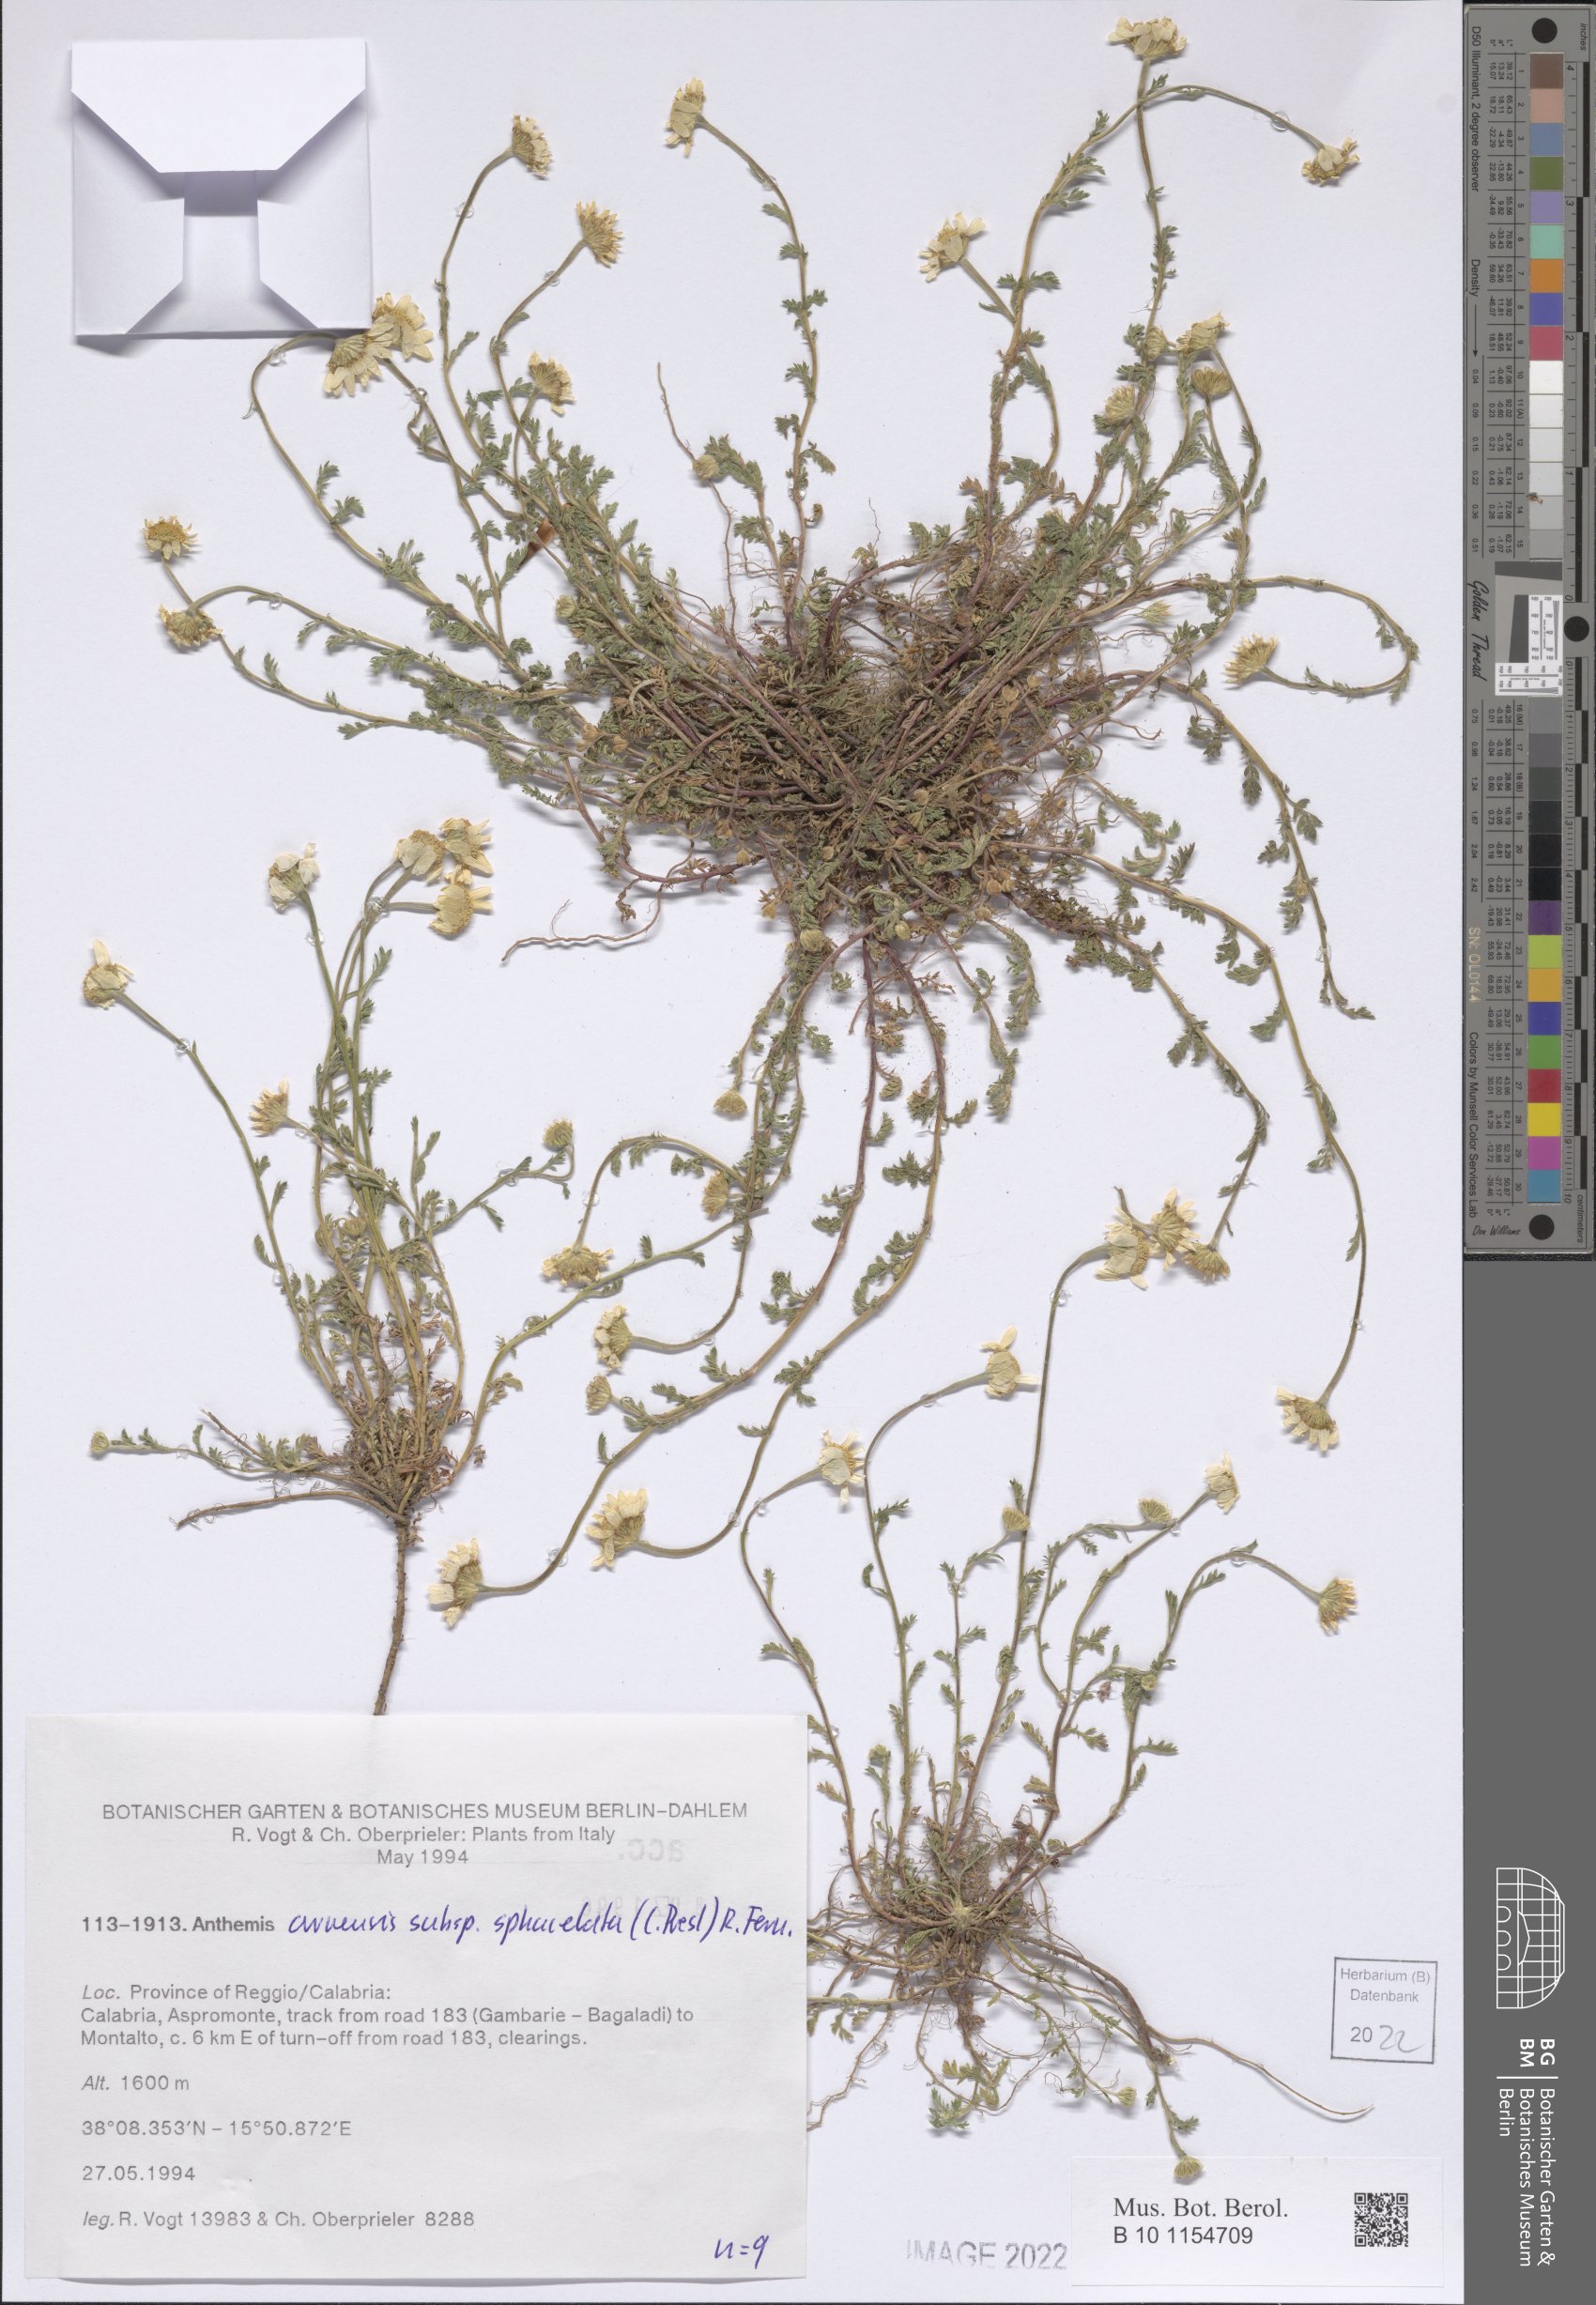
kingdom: Plantae
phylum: Tracheophyta
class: Magnoliopsida
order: Asterales
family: Asteraceae
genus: Anthemis
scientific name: Anthemis arvensis
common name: Corn chamomile
